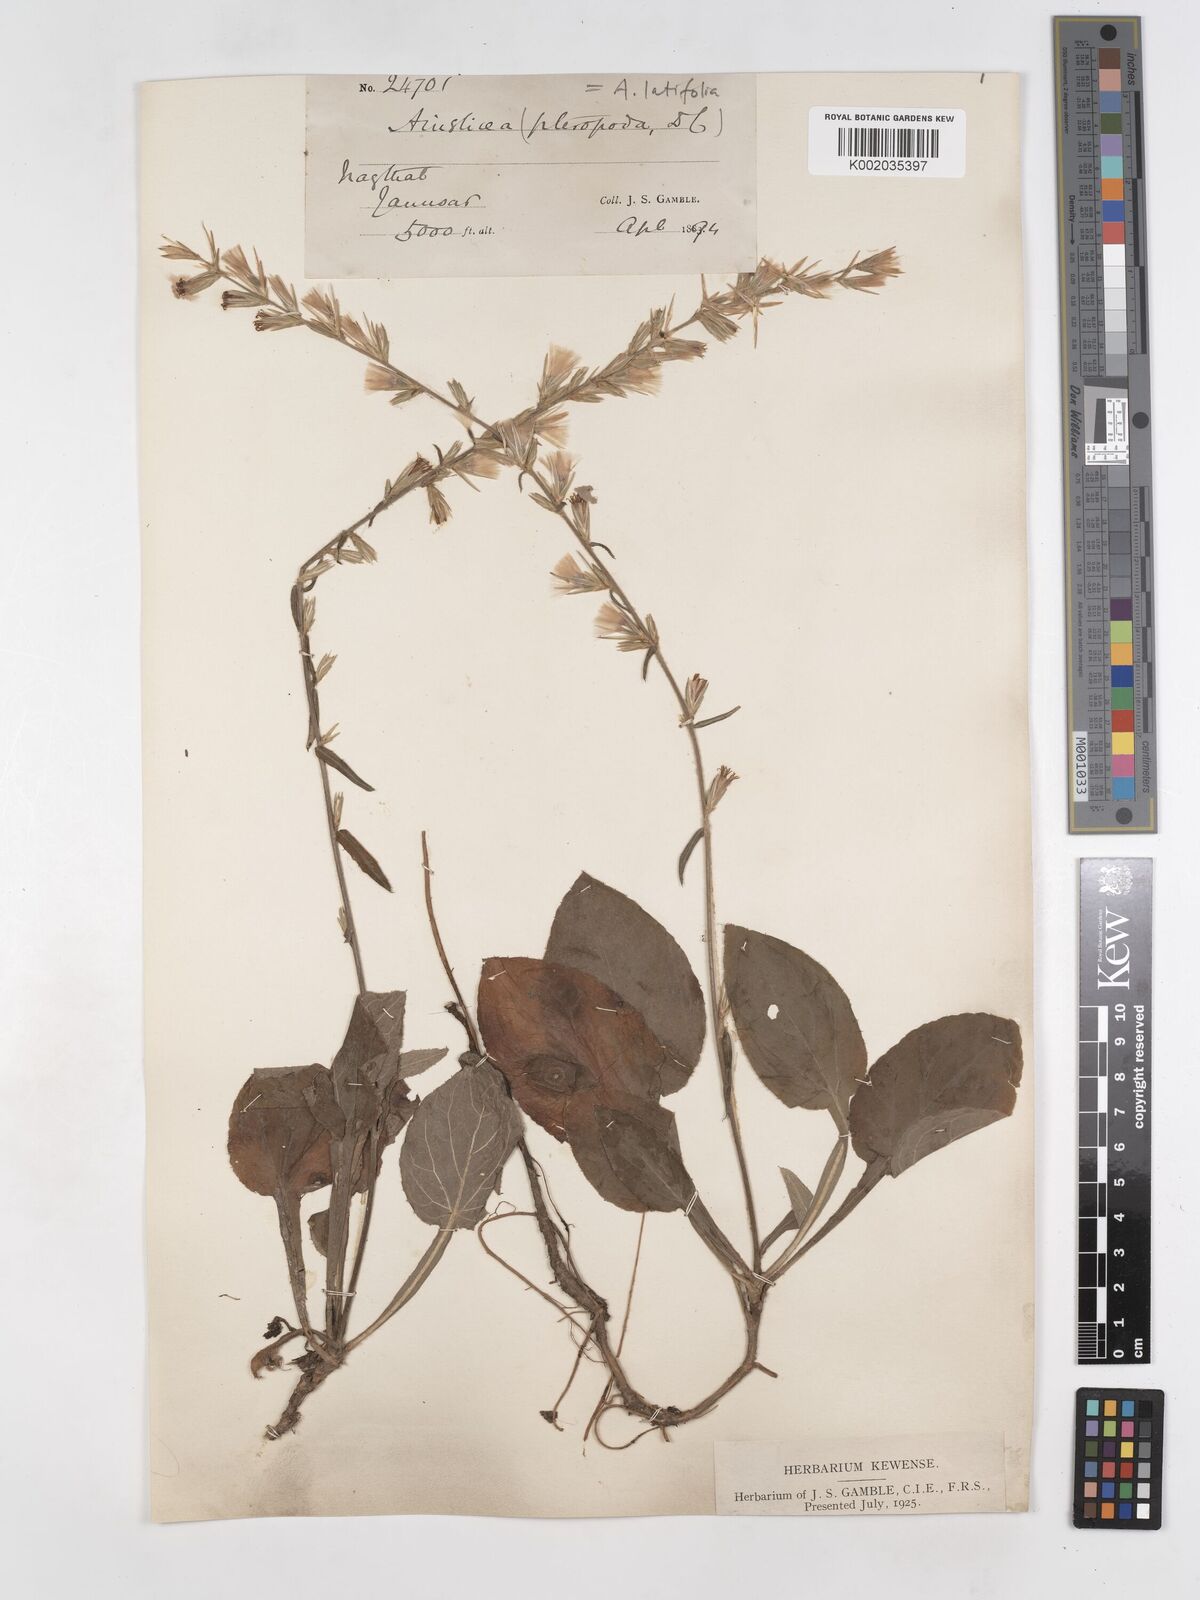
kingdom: Plantae
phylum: Tracheophyta
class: Magnoliopsida
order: Asterales
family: Asteraceae
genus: Ainsliaea
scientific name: Ainsliaea latifolia
